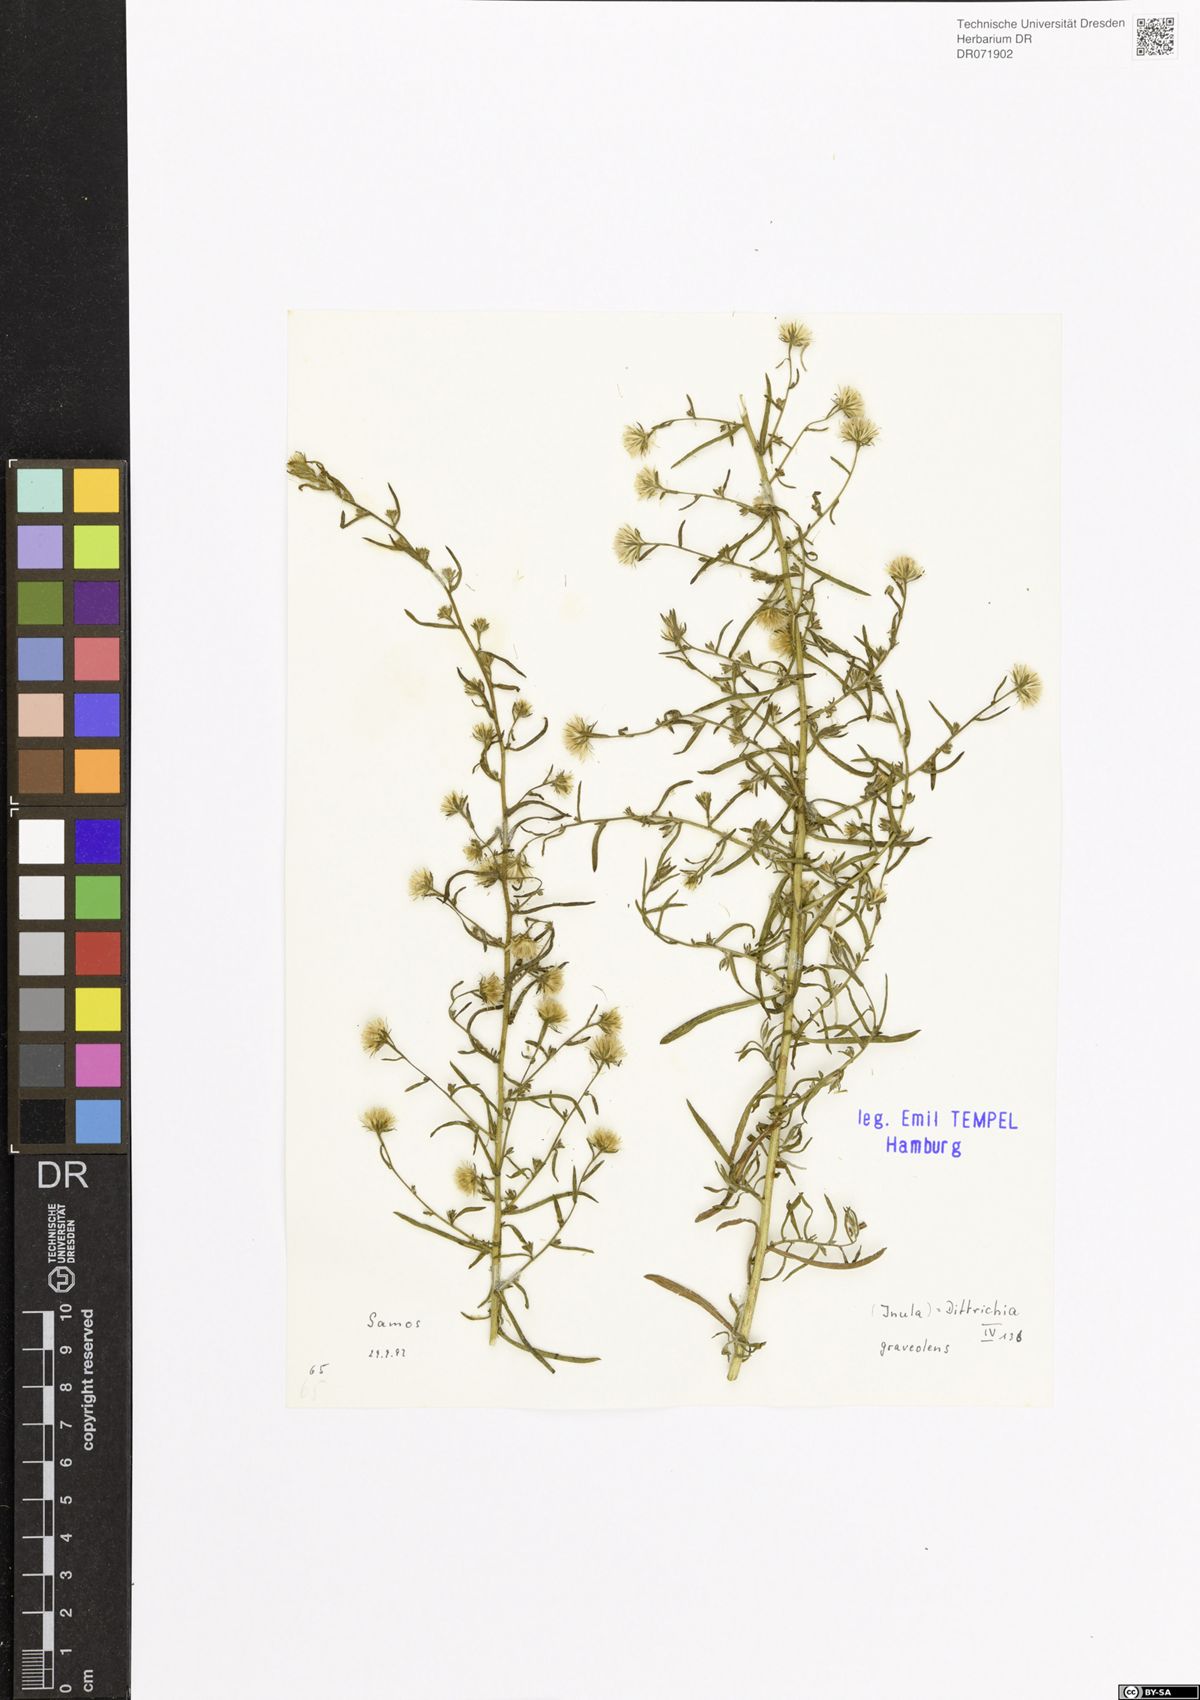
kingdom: Plantae
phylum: Tracheophyta
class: Magnoliopsida
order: Asterales
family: Asteraceae
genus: Dittrichia
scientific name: Dittrichia graveolens
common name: Stinking fleabane
